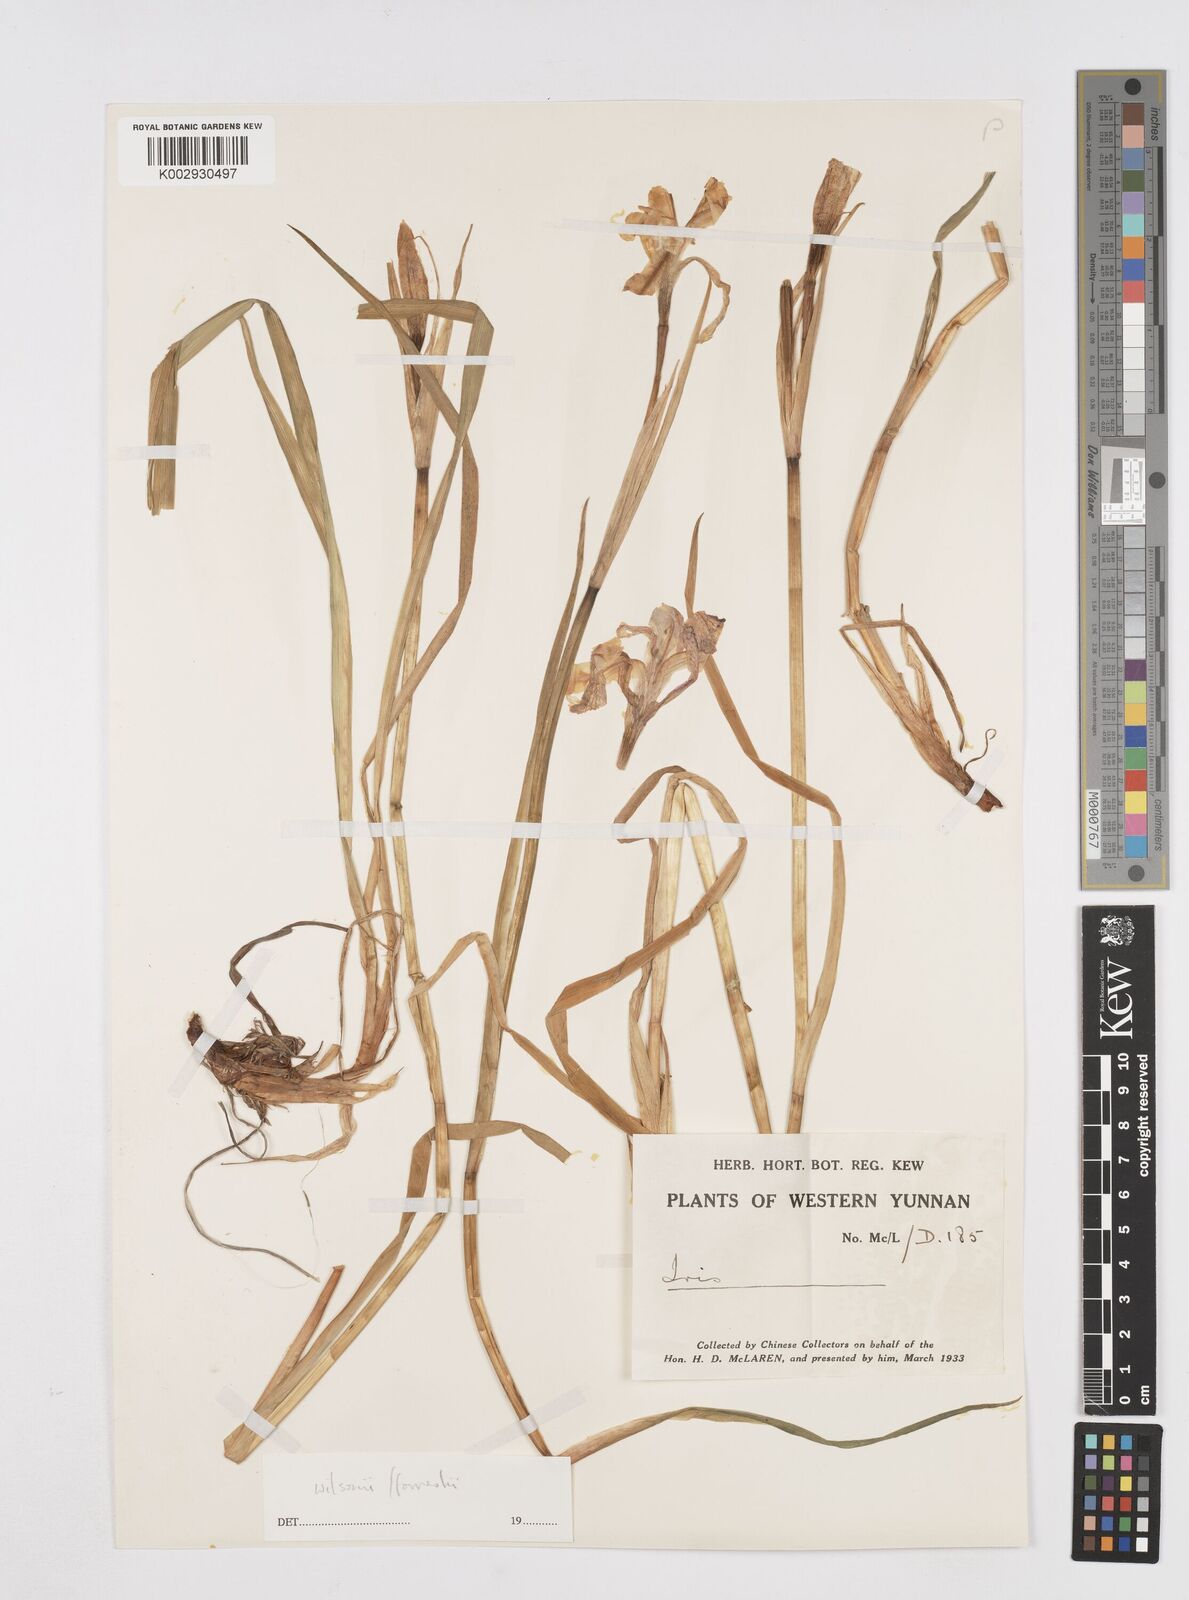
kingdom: Plantae
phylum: Tracheophyta
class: Liliopsida
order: Asparagales
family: Iridaceae
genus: Iris
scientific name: Iris wilsonii
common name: Yellow-flower iris
